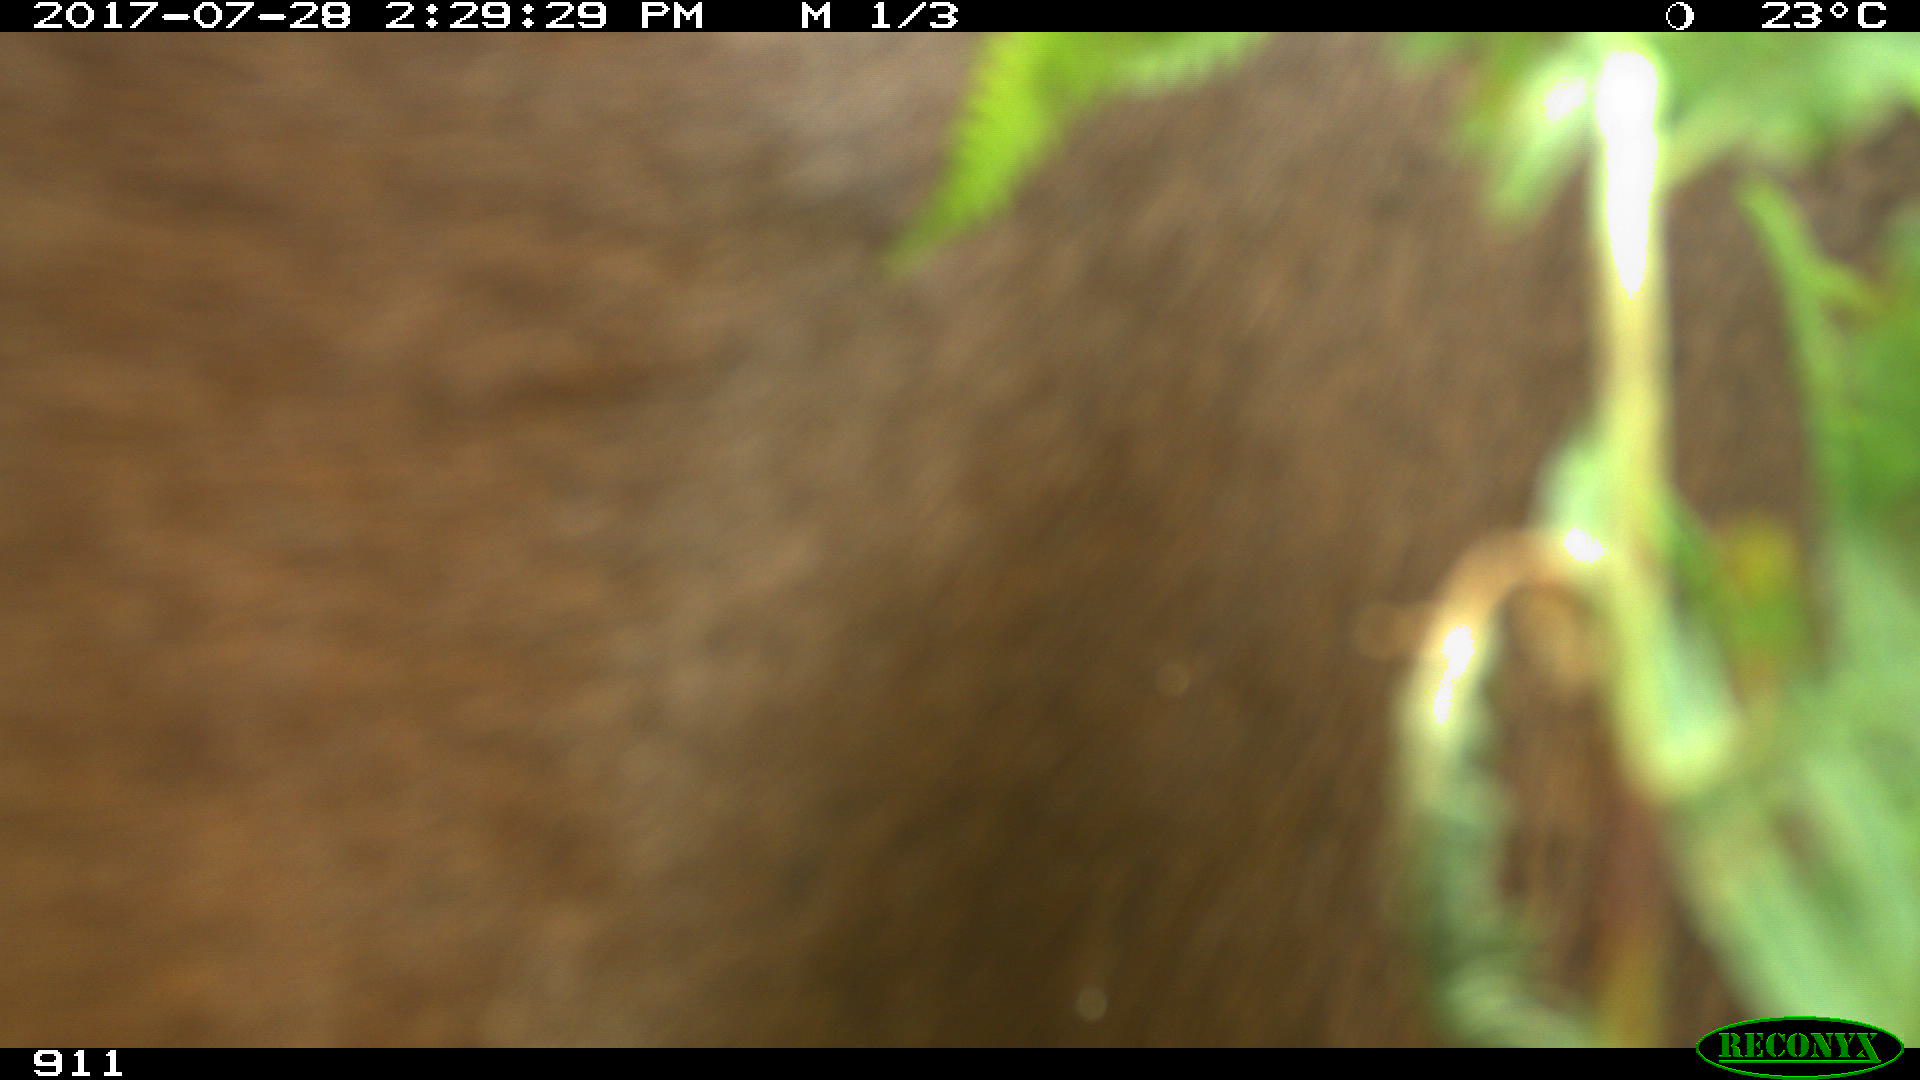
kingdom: Animalia
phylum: Chordata
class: Mammalia
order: Perissodactyla
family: Equidae
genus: Equus
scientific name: Equus caballus
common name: Horse
